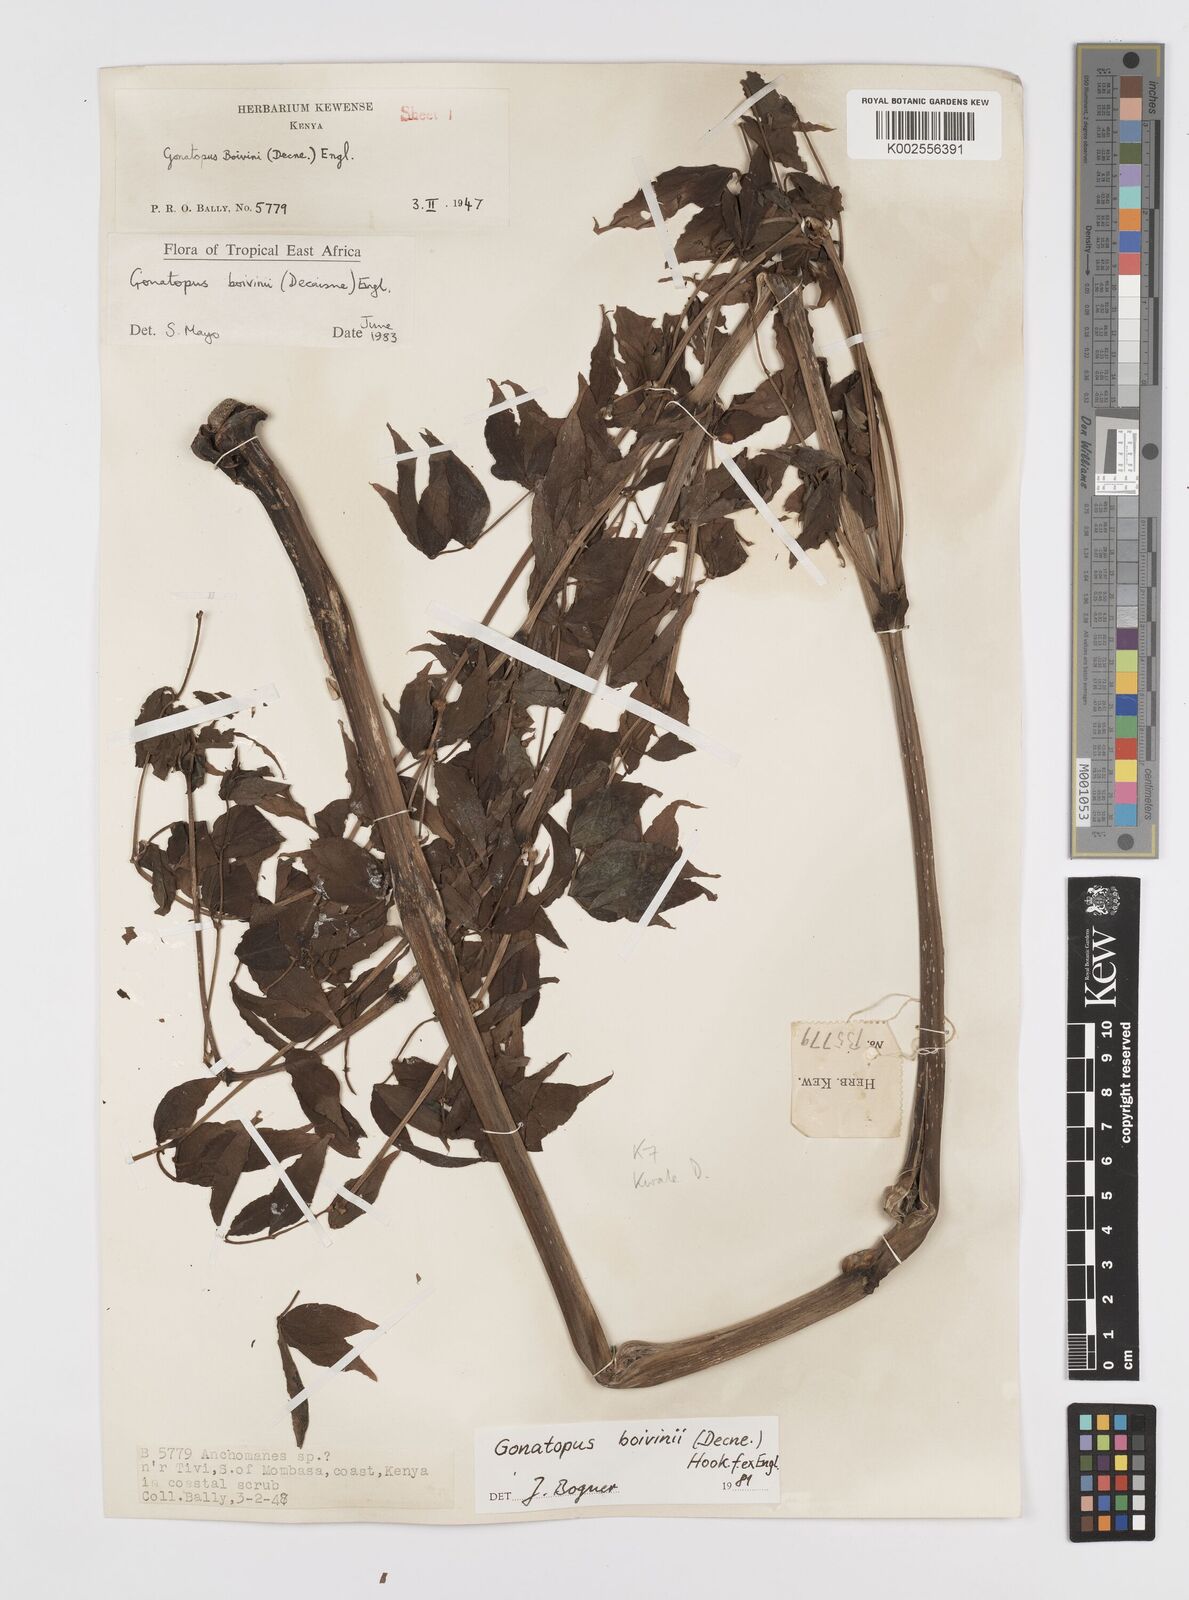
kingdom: Plantae
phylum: Tracheophyta
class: Liliopsida
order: Alismatales
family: Araceae
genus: Gonatopus
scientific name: Gonatopus boivinii
